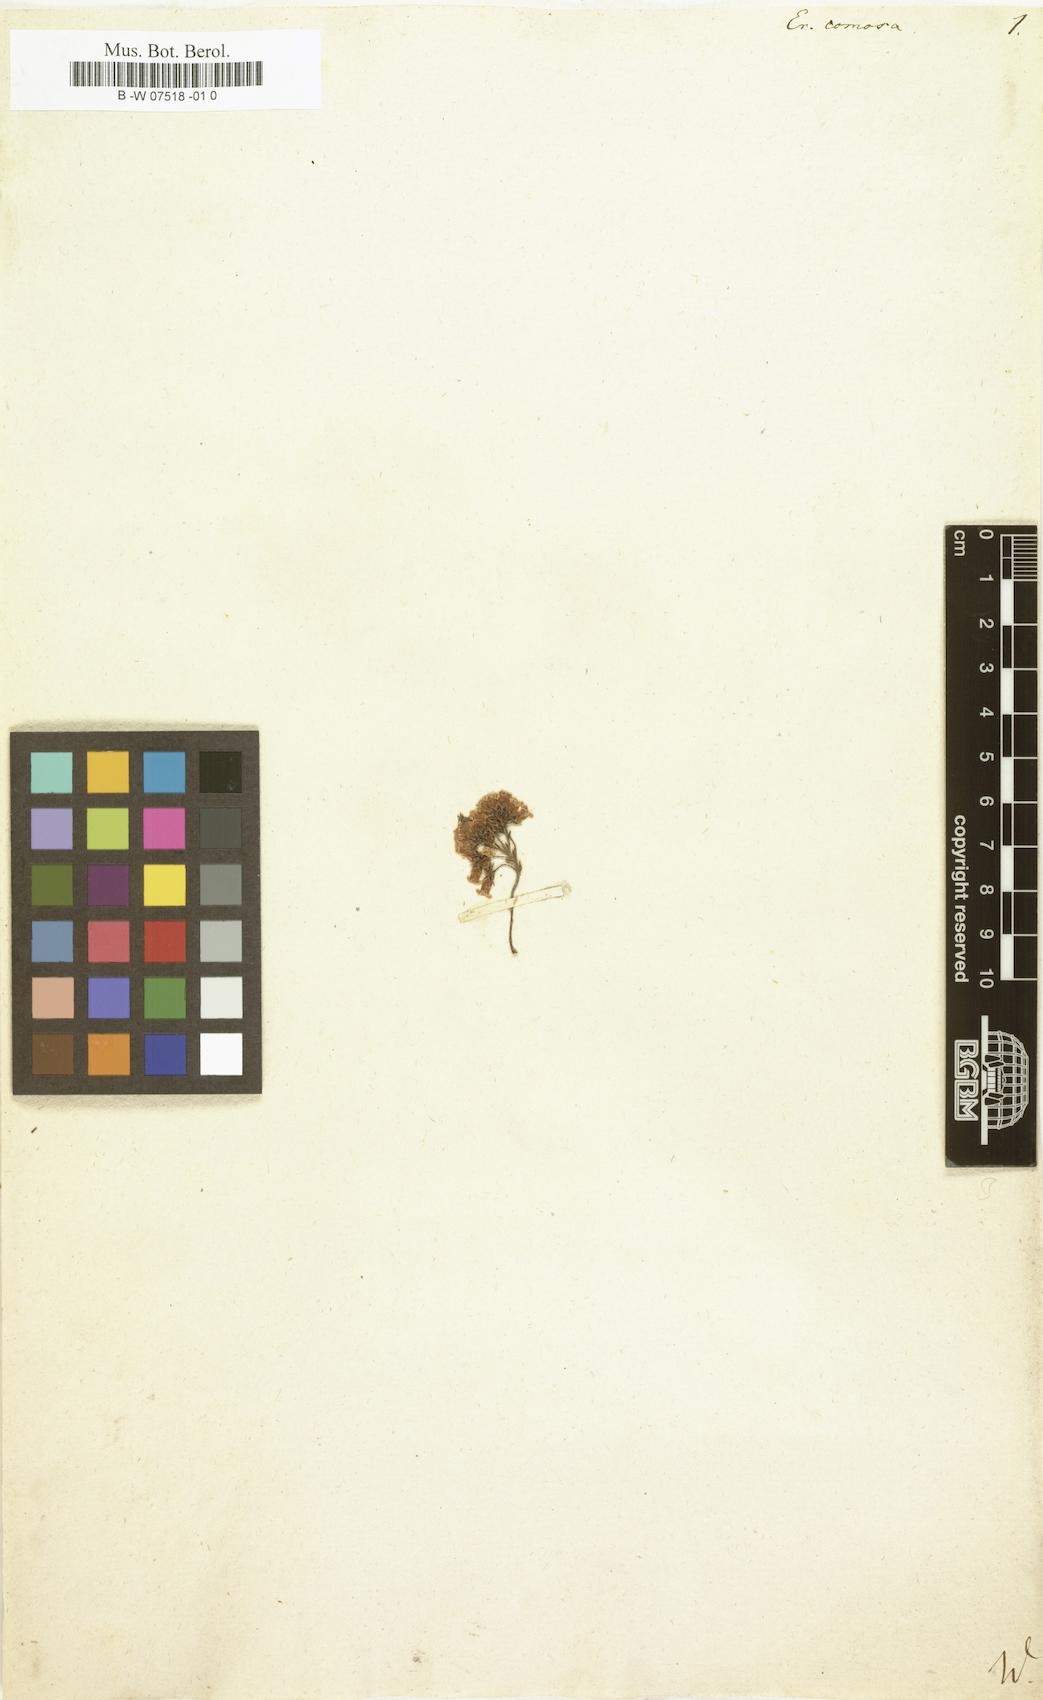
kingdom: Plantae
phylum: Tracheophyta
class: Magnoliopsida
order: Ericales
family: Ericaceae
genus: Erica
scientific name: Erica diaphana
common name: Heath
